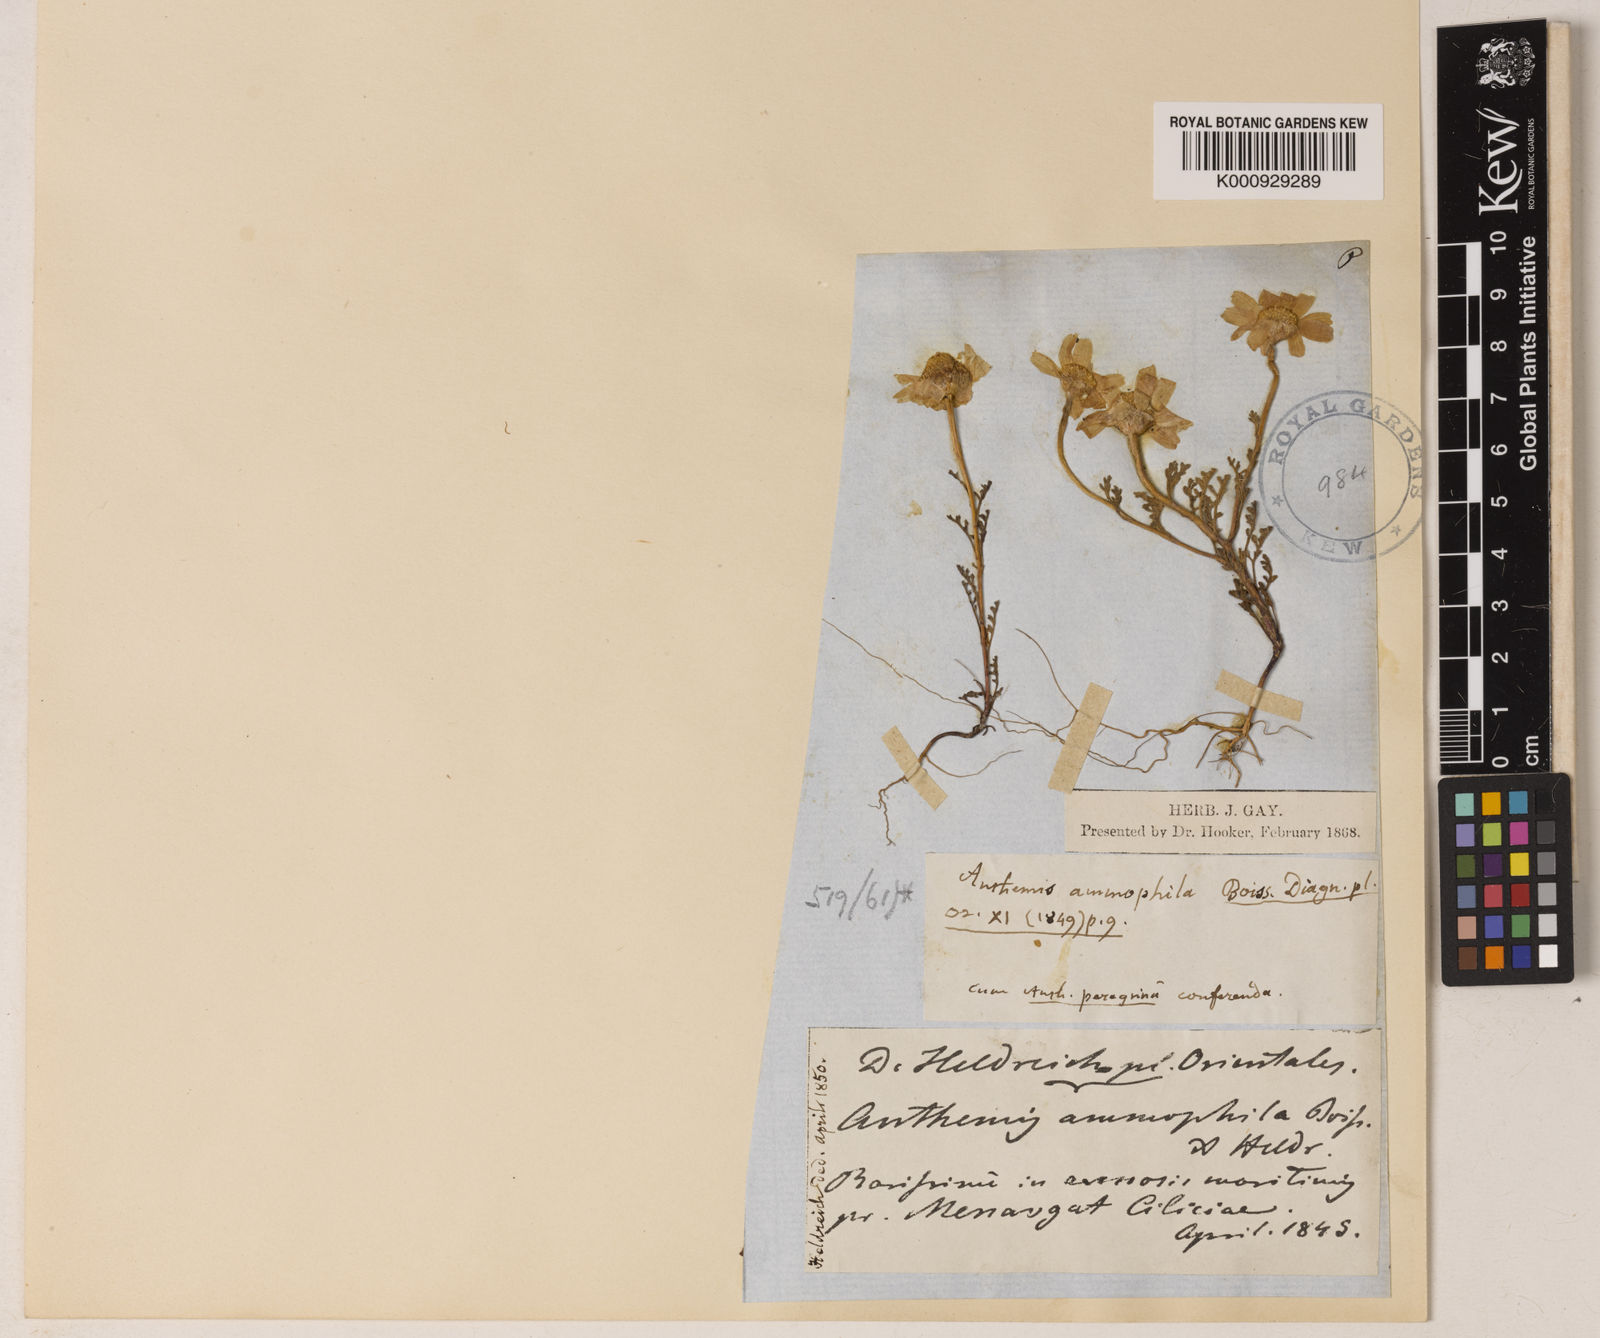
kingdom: Plantae
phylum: Tracheophyta
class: Magnoliopsida
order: Asterales
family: Asteraceae
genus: Anthemis
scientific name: Anthemis ammophila
